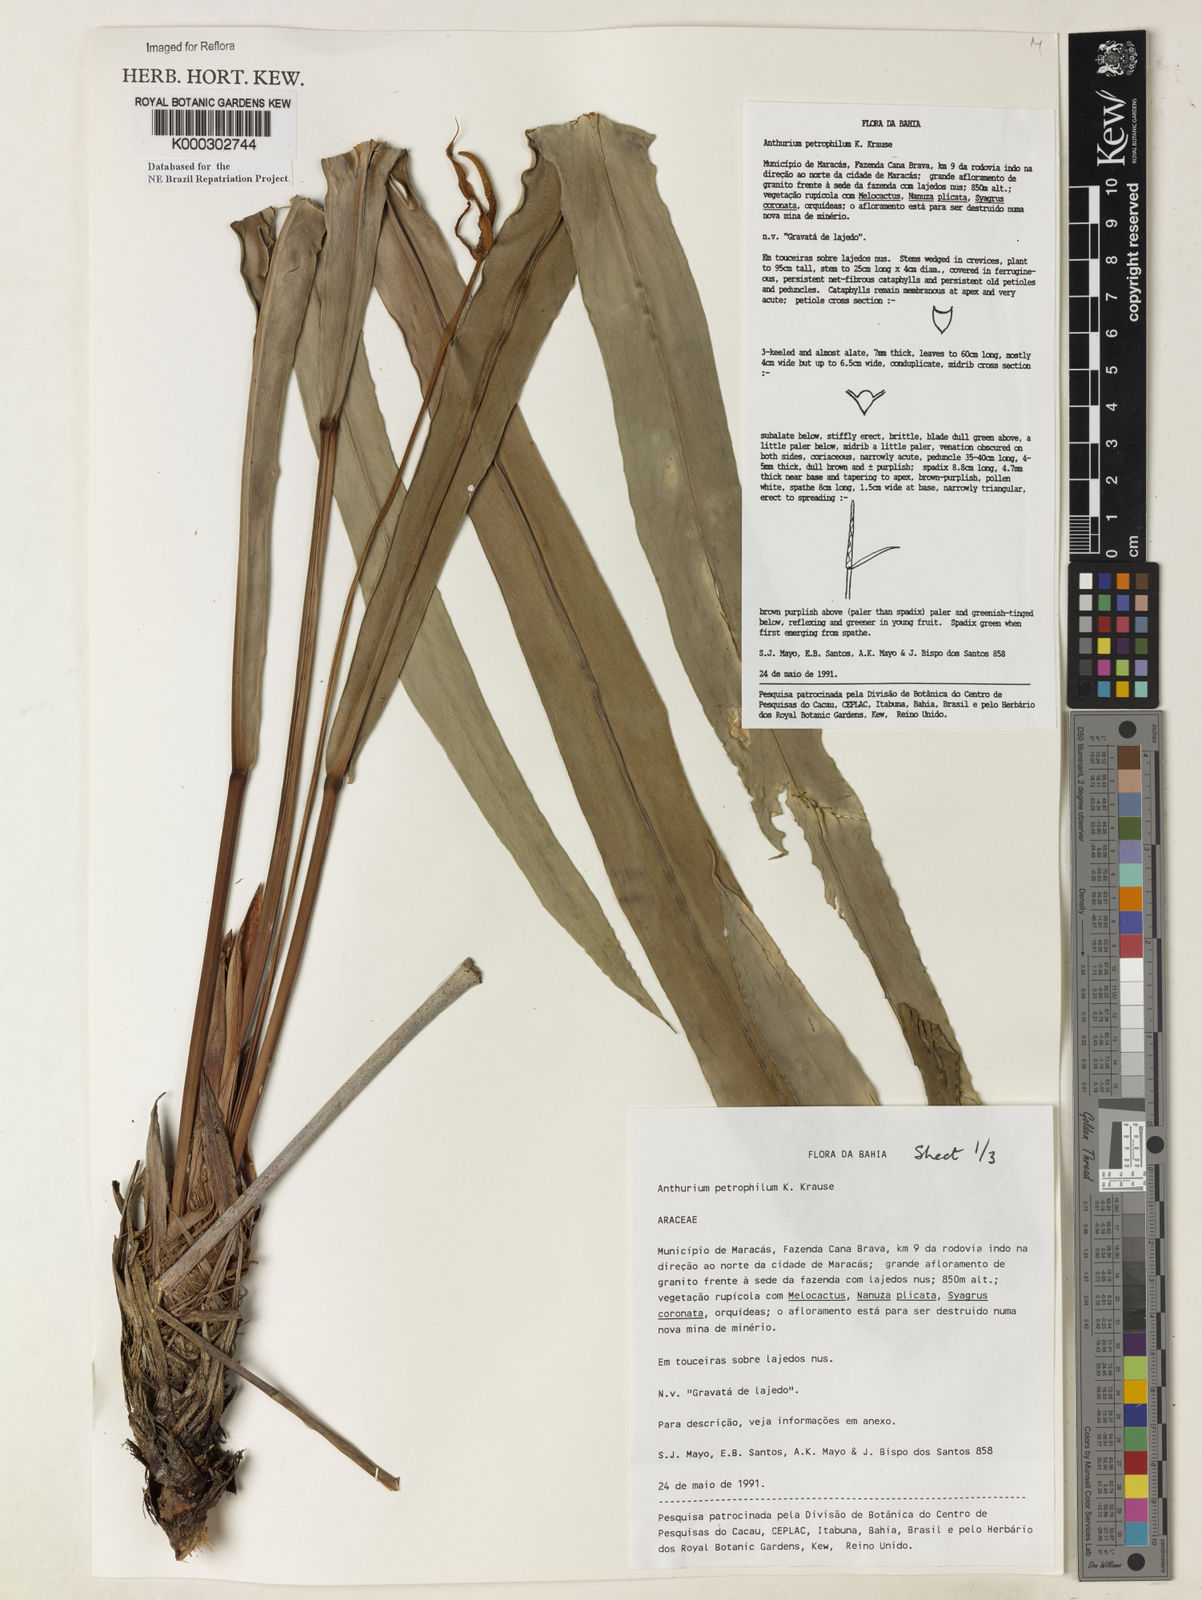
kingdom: Plantae
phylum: Tracheophyta
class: Liliopsida
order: Alismatales
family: Araceae
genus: Anthurium
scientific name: Anthurium petrophilum
